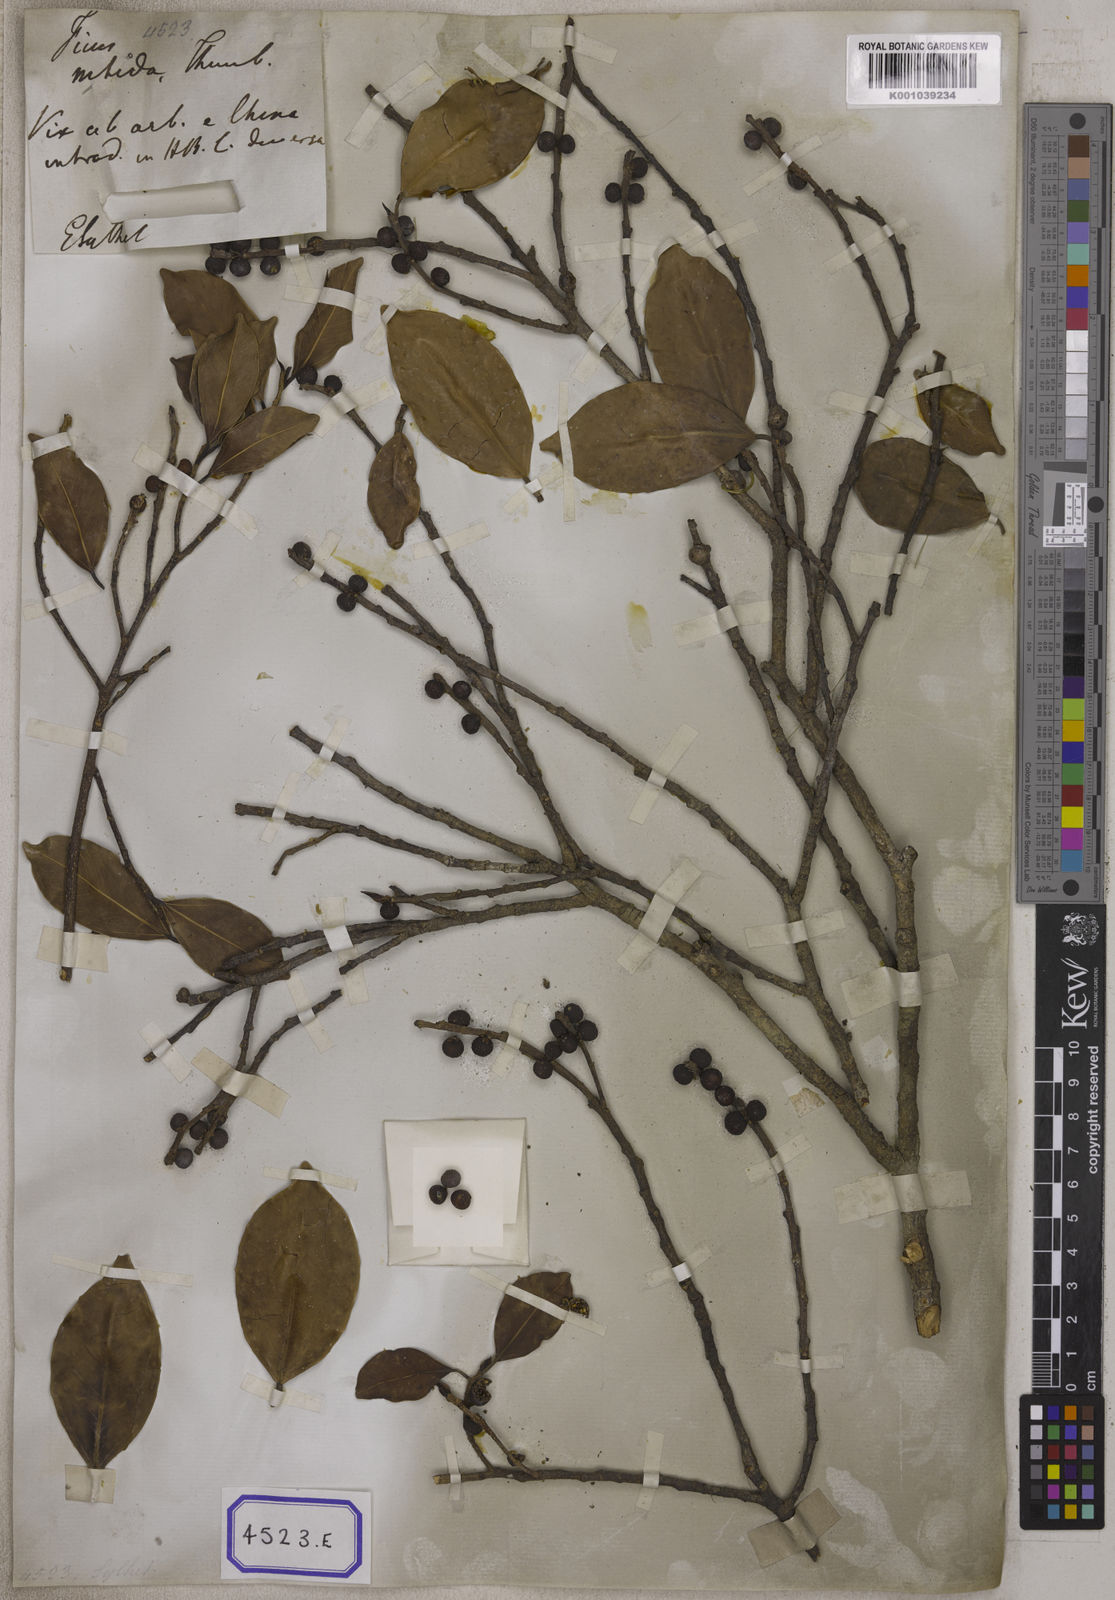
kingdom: Plantae
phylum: Tracheophyta
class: Magnoliopsida
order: Rosales
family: Moraceae
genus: Ficus
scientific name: Ficus benjamina
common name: Weeping fig
